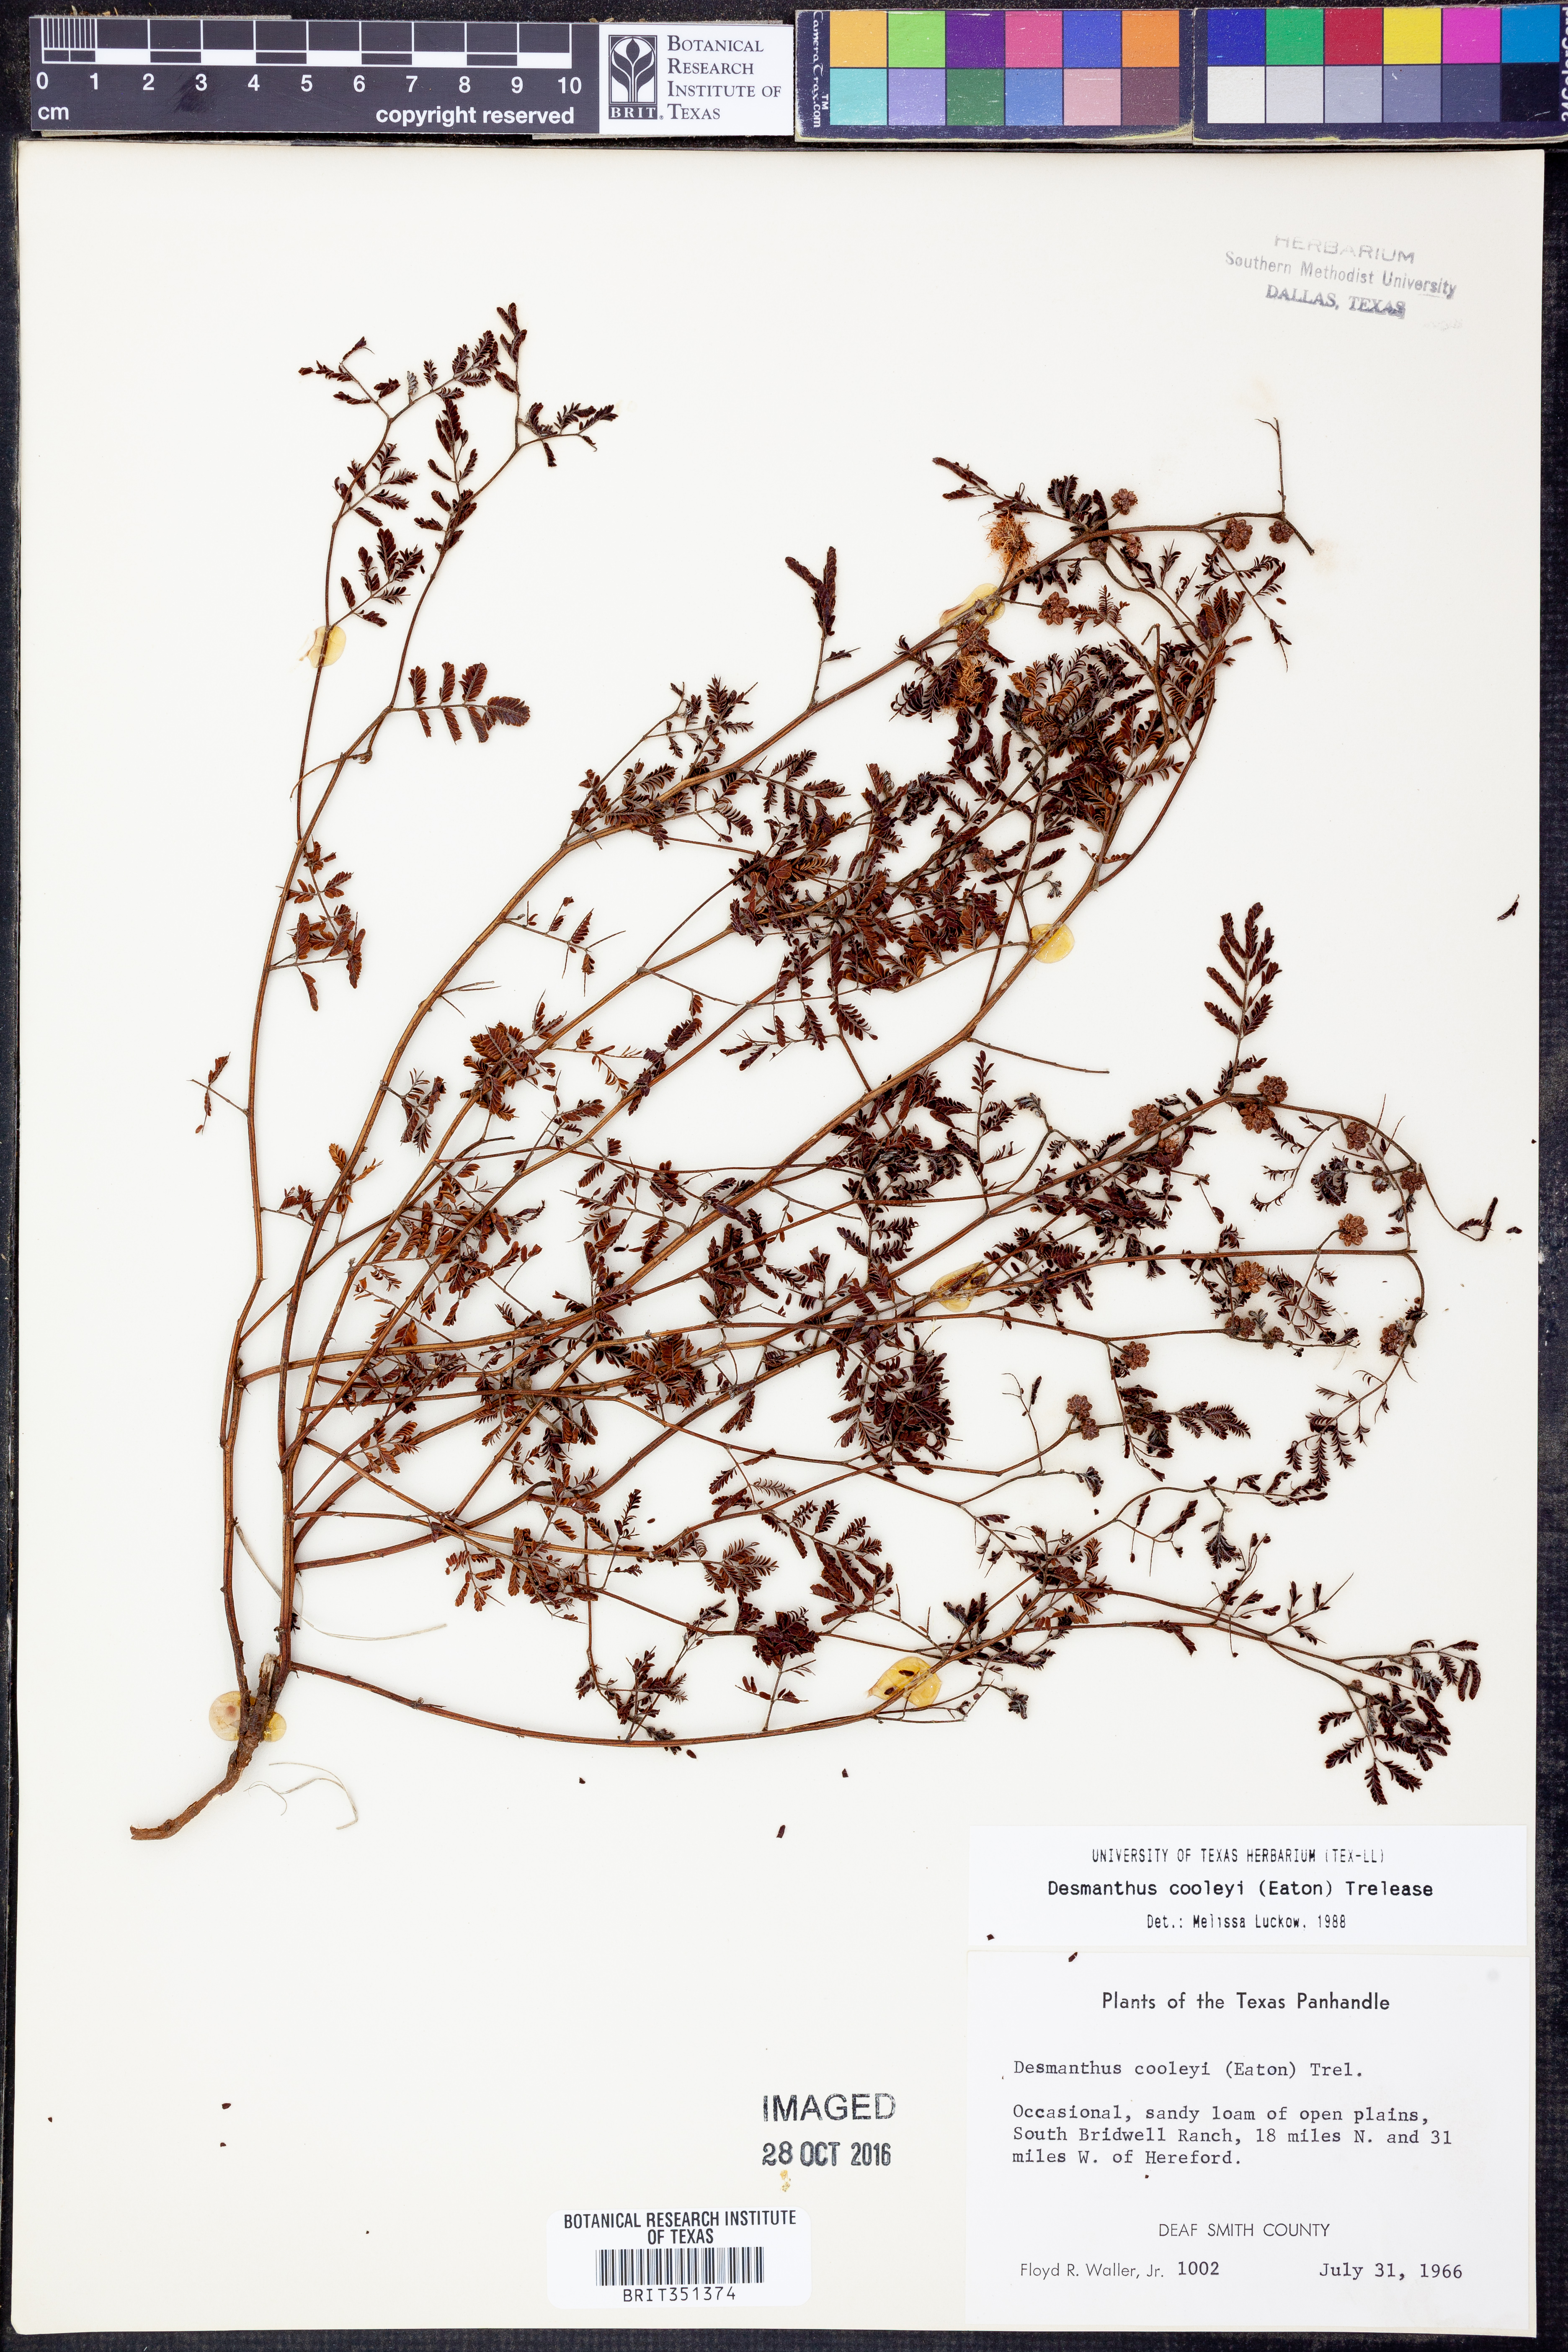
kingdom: Plantae
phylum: Tracheophyta
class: Magnoliopsida
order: Fabales
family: Fabaceae
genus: Desmanthus
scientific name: Desmanthus cooleyi
